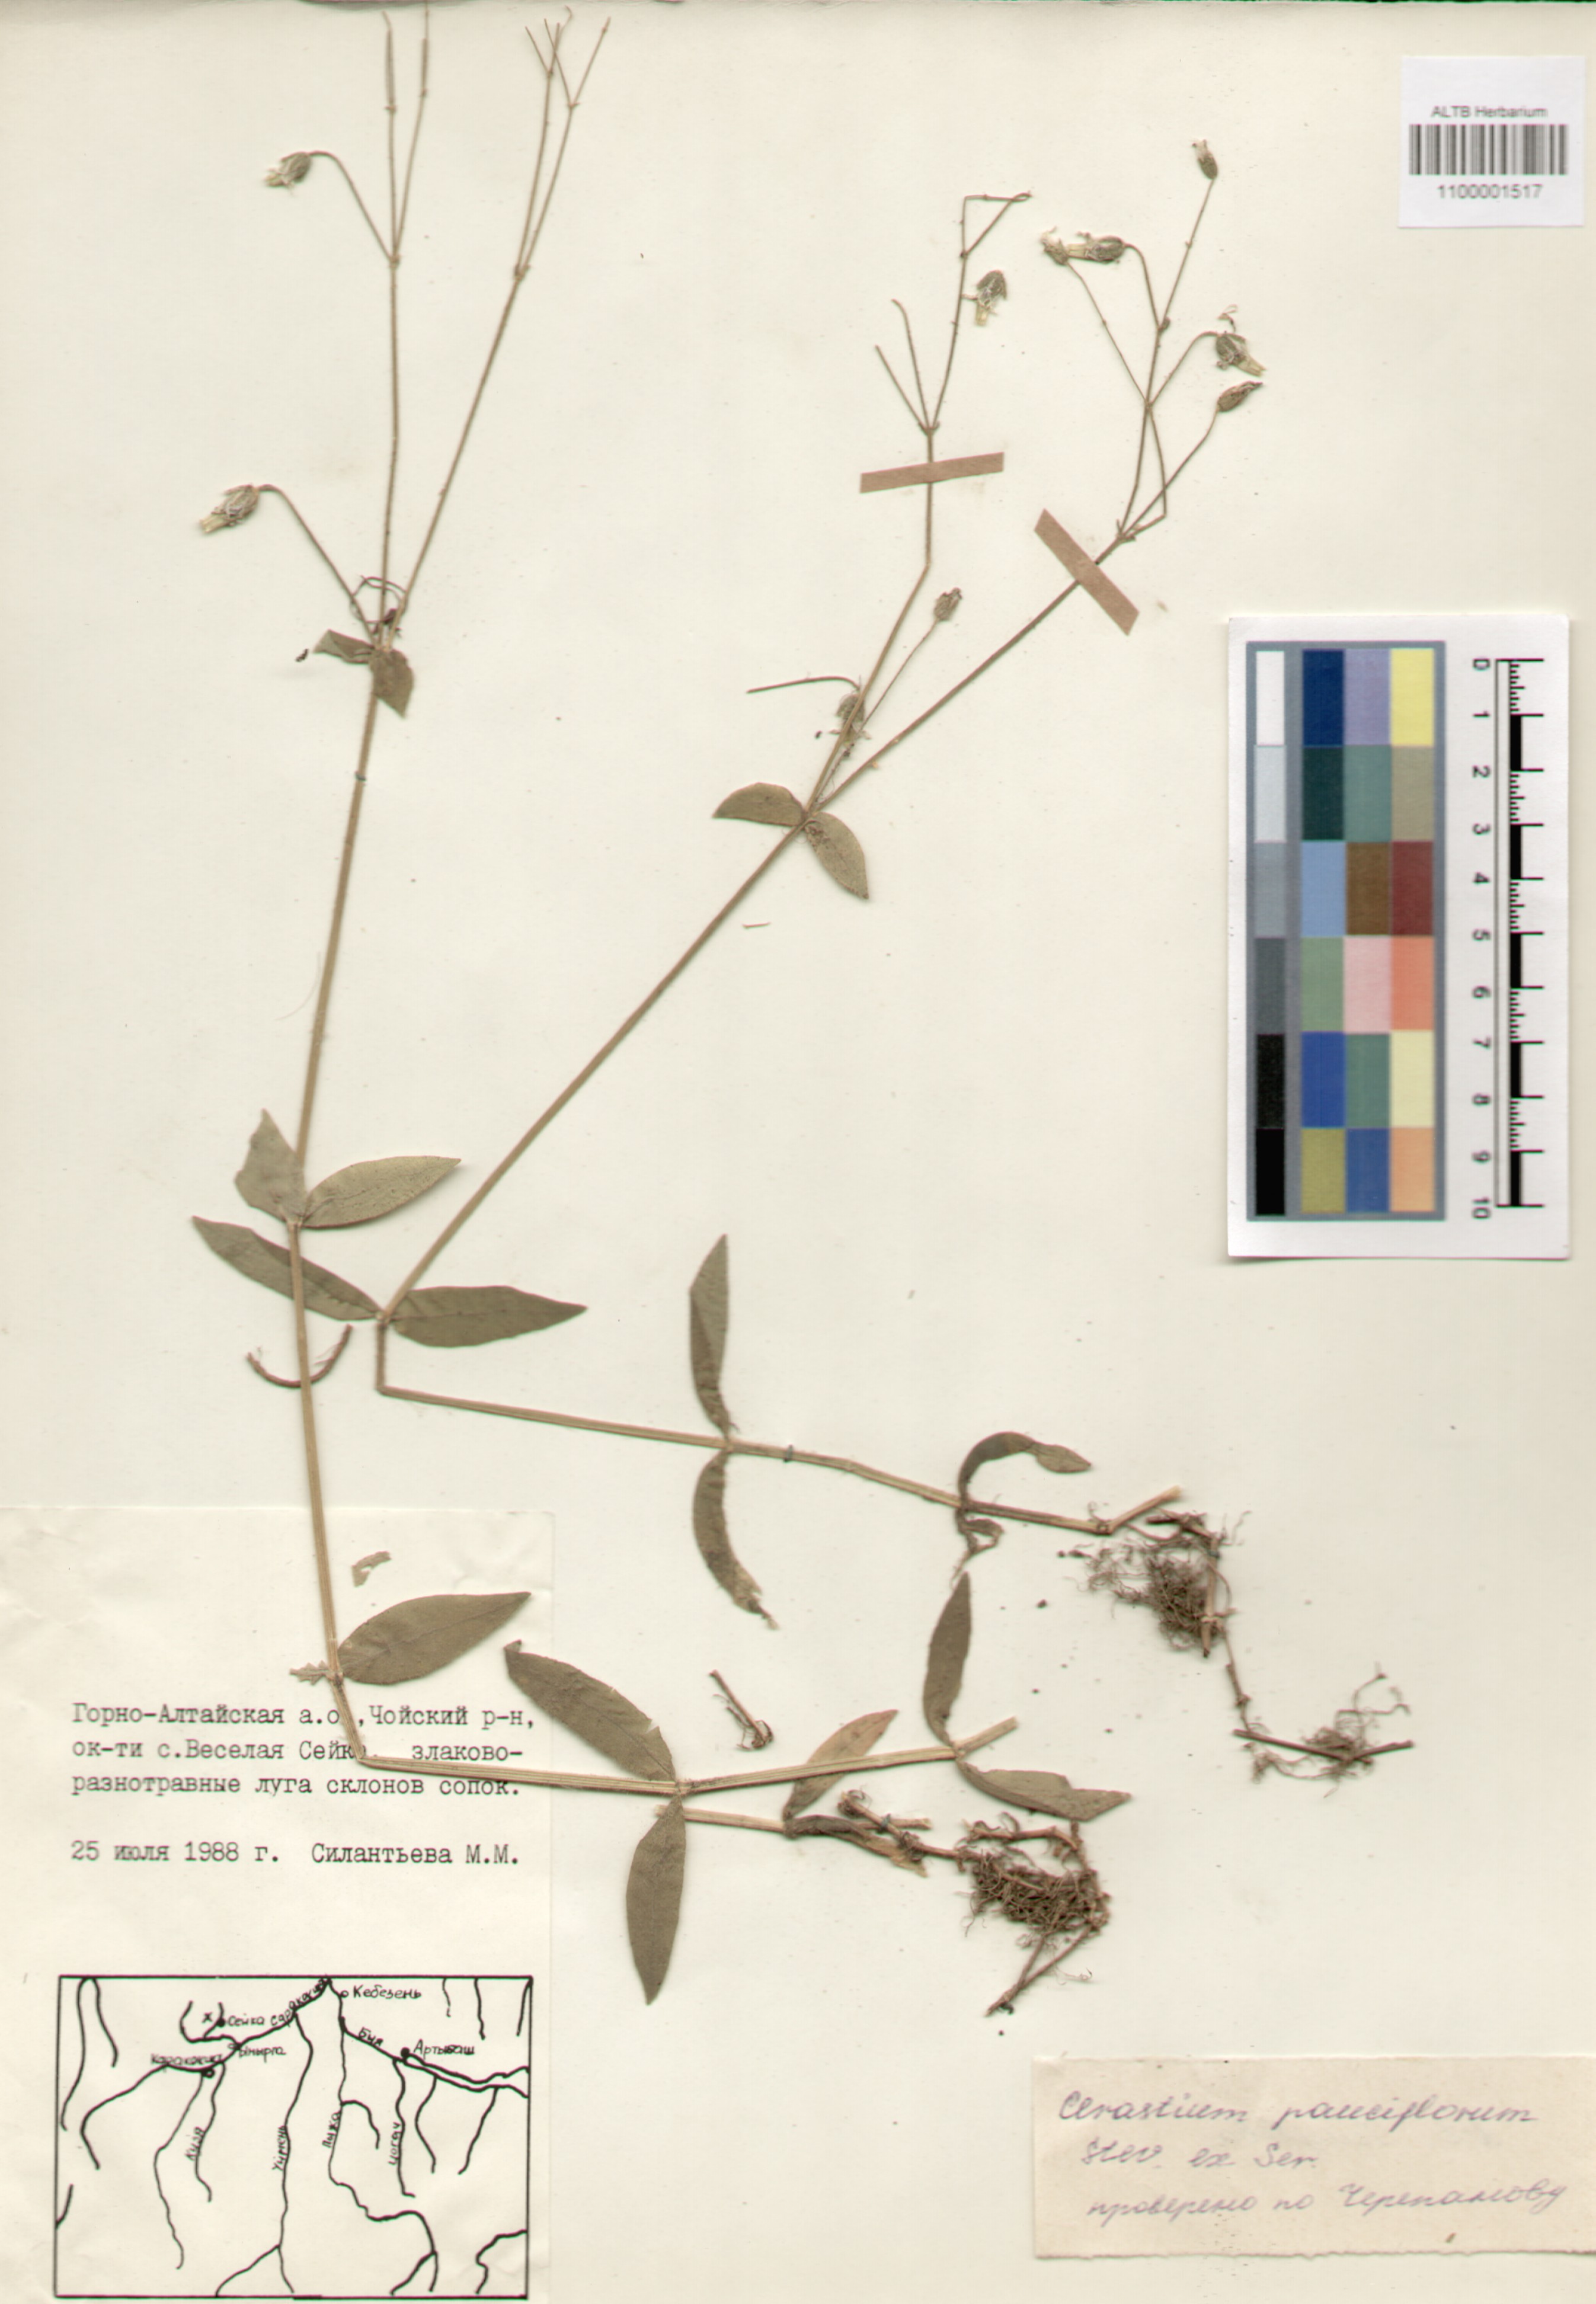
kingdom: Plantae
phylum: Tracheophyta
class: Magnoliopsida
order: Caryophyllales
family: Caryophyllaceae
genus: Cerastium
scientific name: Cerastium pauciflorum
